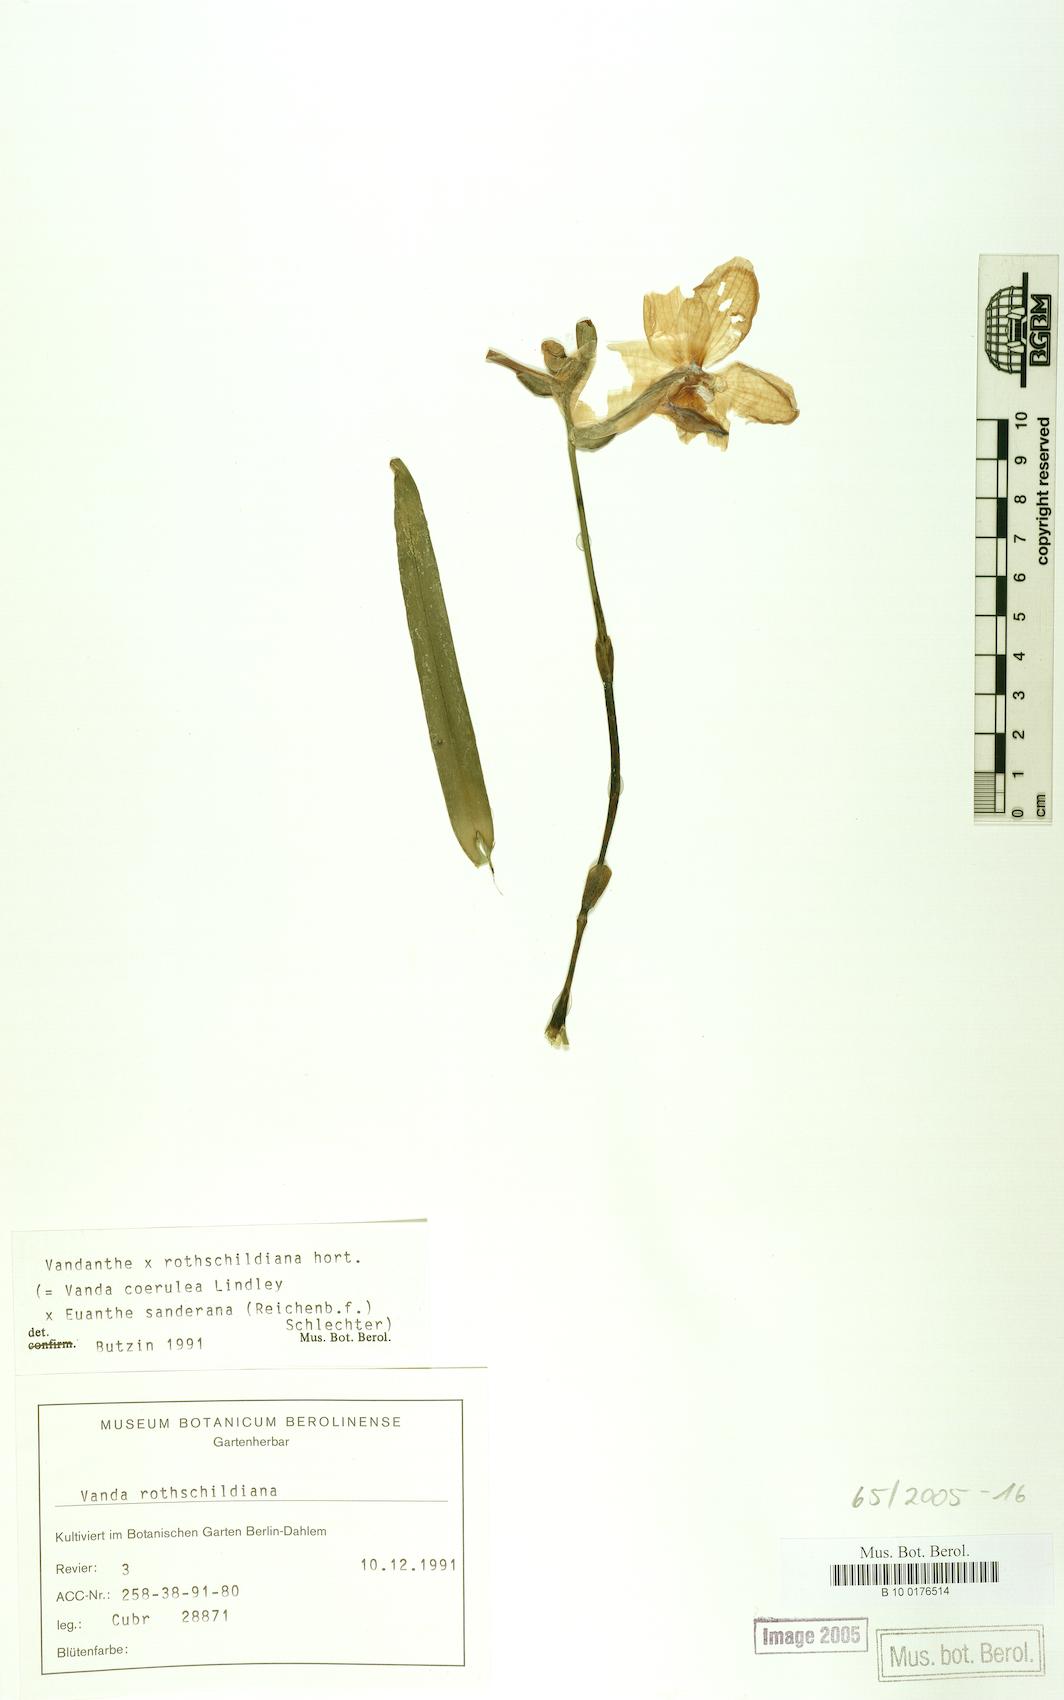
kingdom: Plantae
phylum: Tracheophyta
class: Liliopsida
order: Asparagales
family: Orchidaceae
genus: Vanda
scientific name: Vanda rotschildiana
